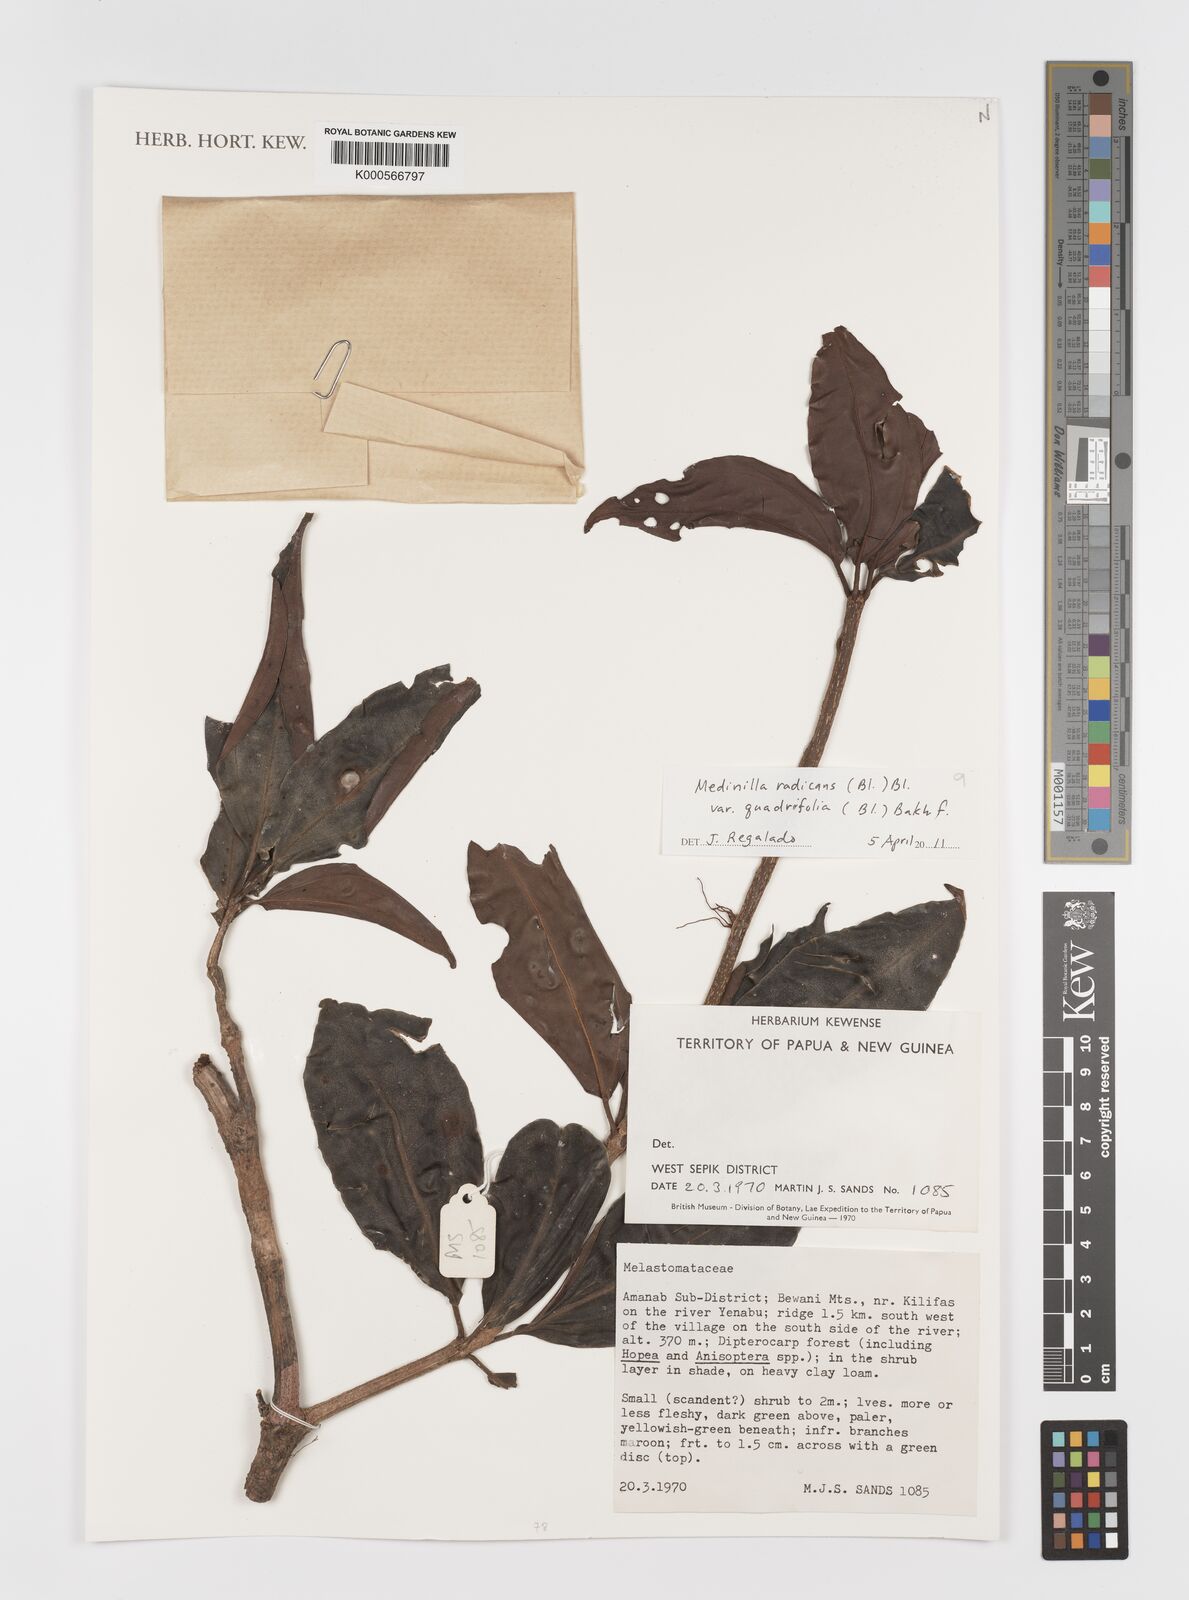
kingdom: Plantae
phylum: Tracheophyta
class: Magnoliopsida
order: Myrtales
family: Melastomataceae
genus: Medinilla
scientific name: Medinilla radicans
